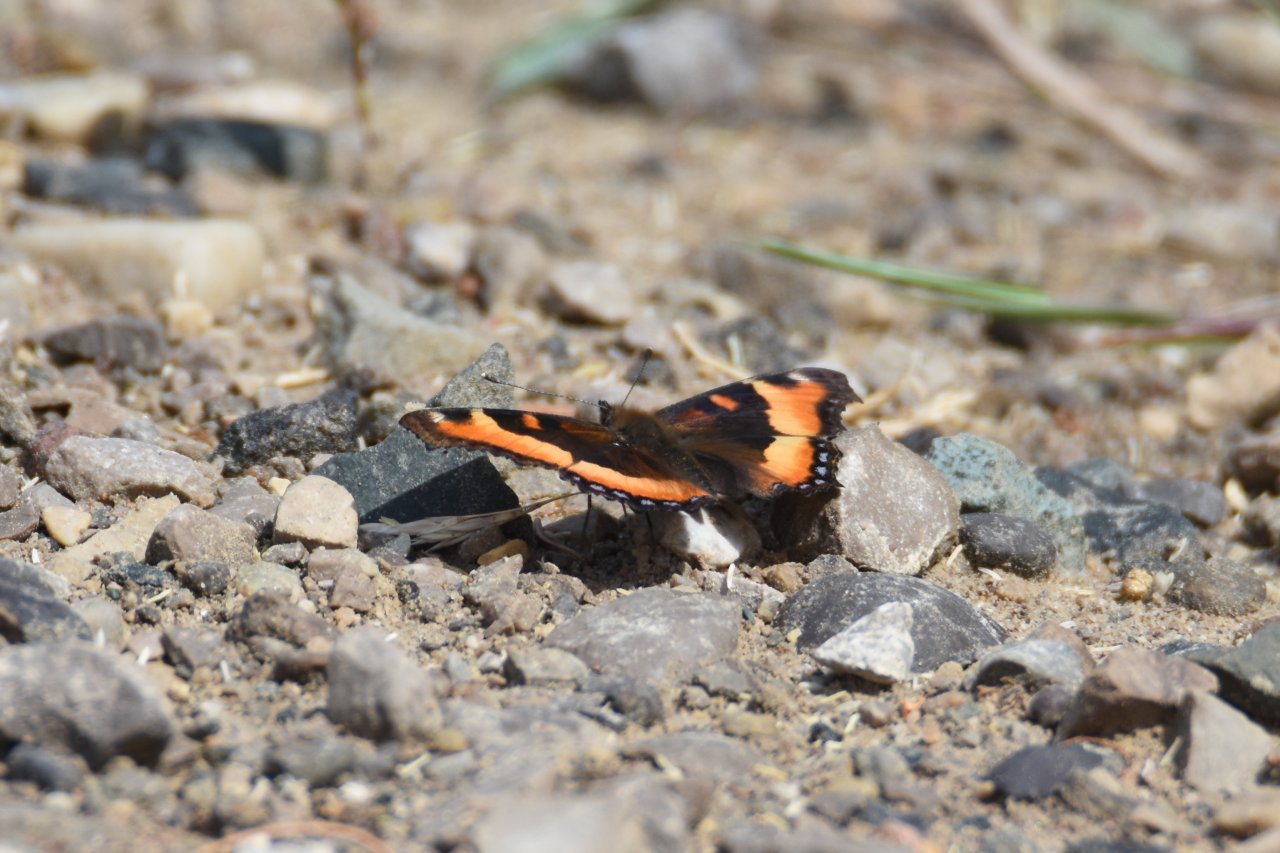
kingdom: Animalia
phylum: Arthropoda
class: Insecta
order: Lepidoptera
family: Nymphalidae
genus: Aglais
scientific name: Aglais milberti
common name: Milbert's Tortoiseshell
